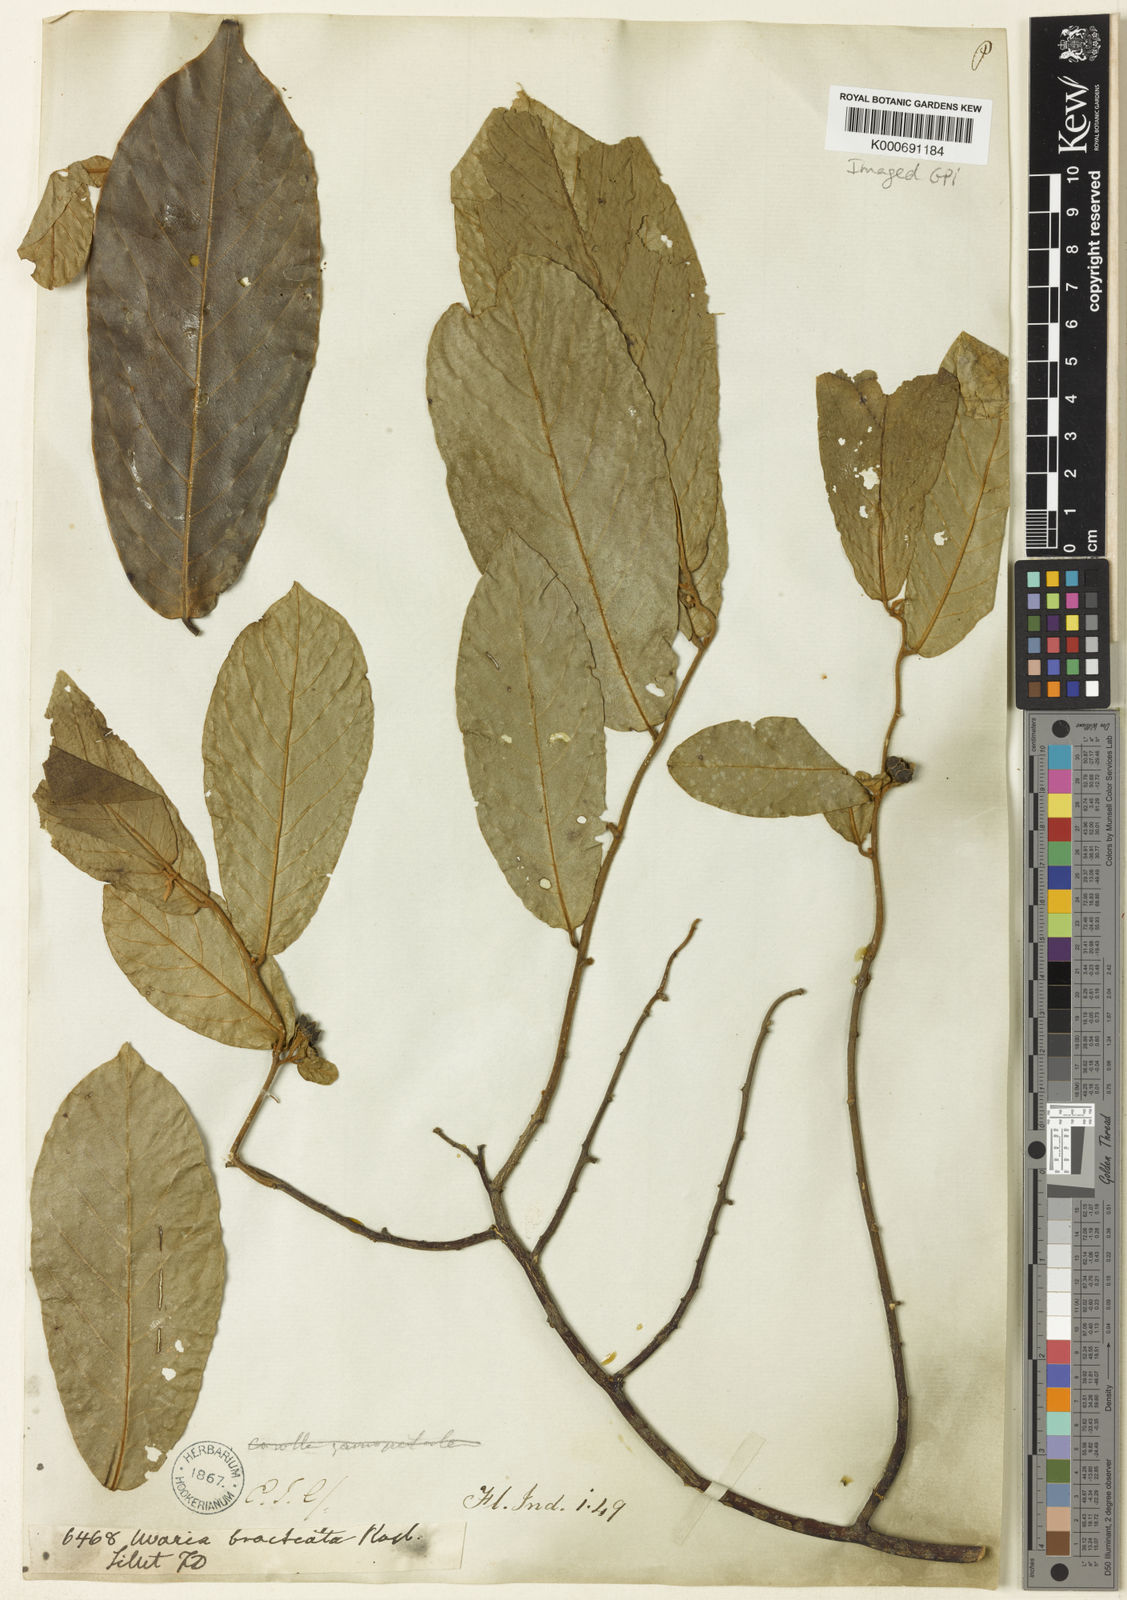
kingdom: Plantae
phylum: Tracheophyta
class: Magnoliopsida
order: Magnoliales
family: Annonaceae
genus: Uvaria
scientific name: Uvaria argentea
